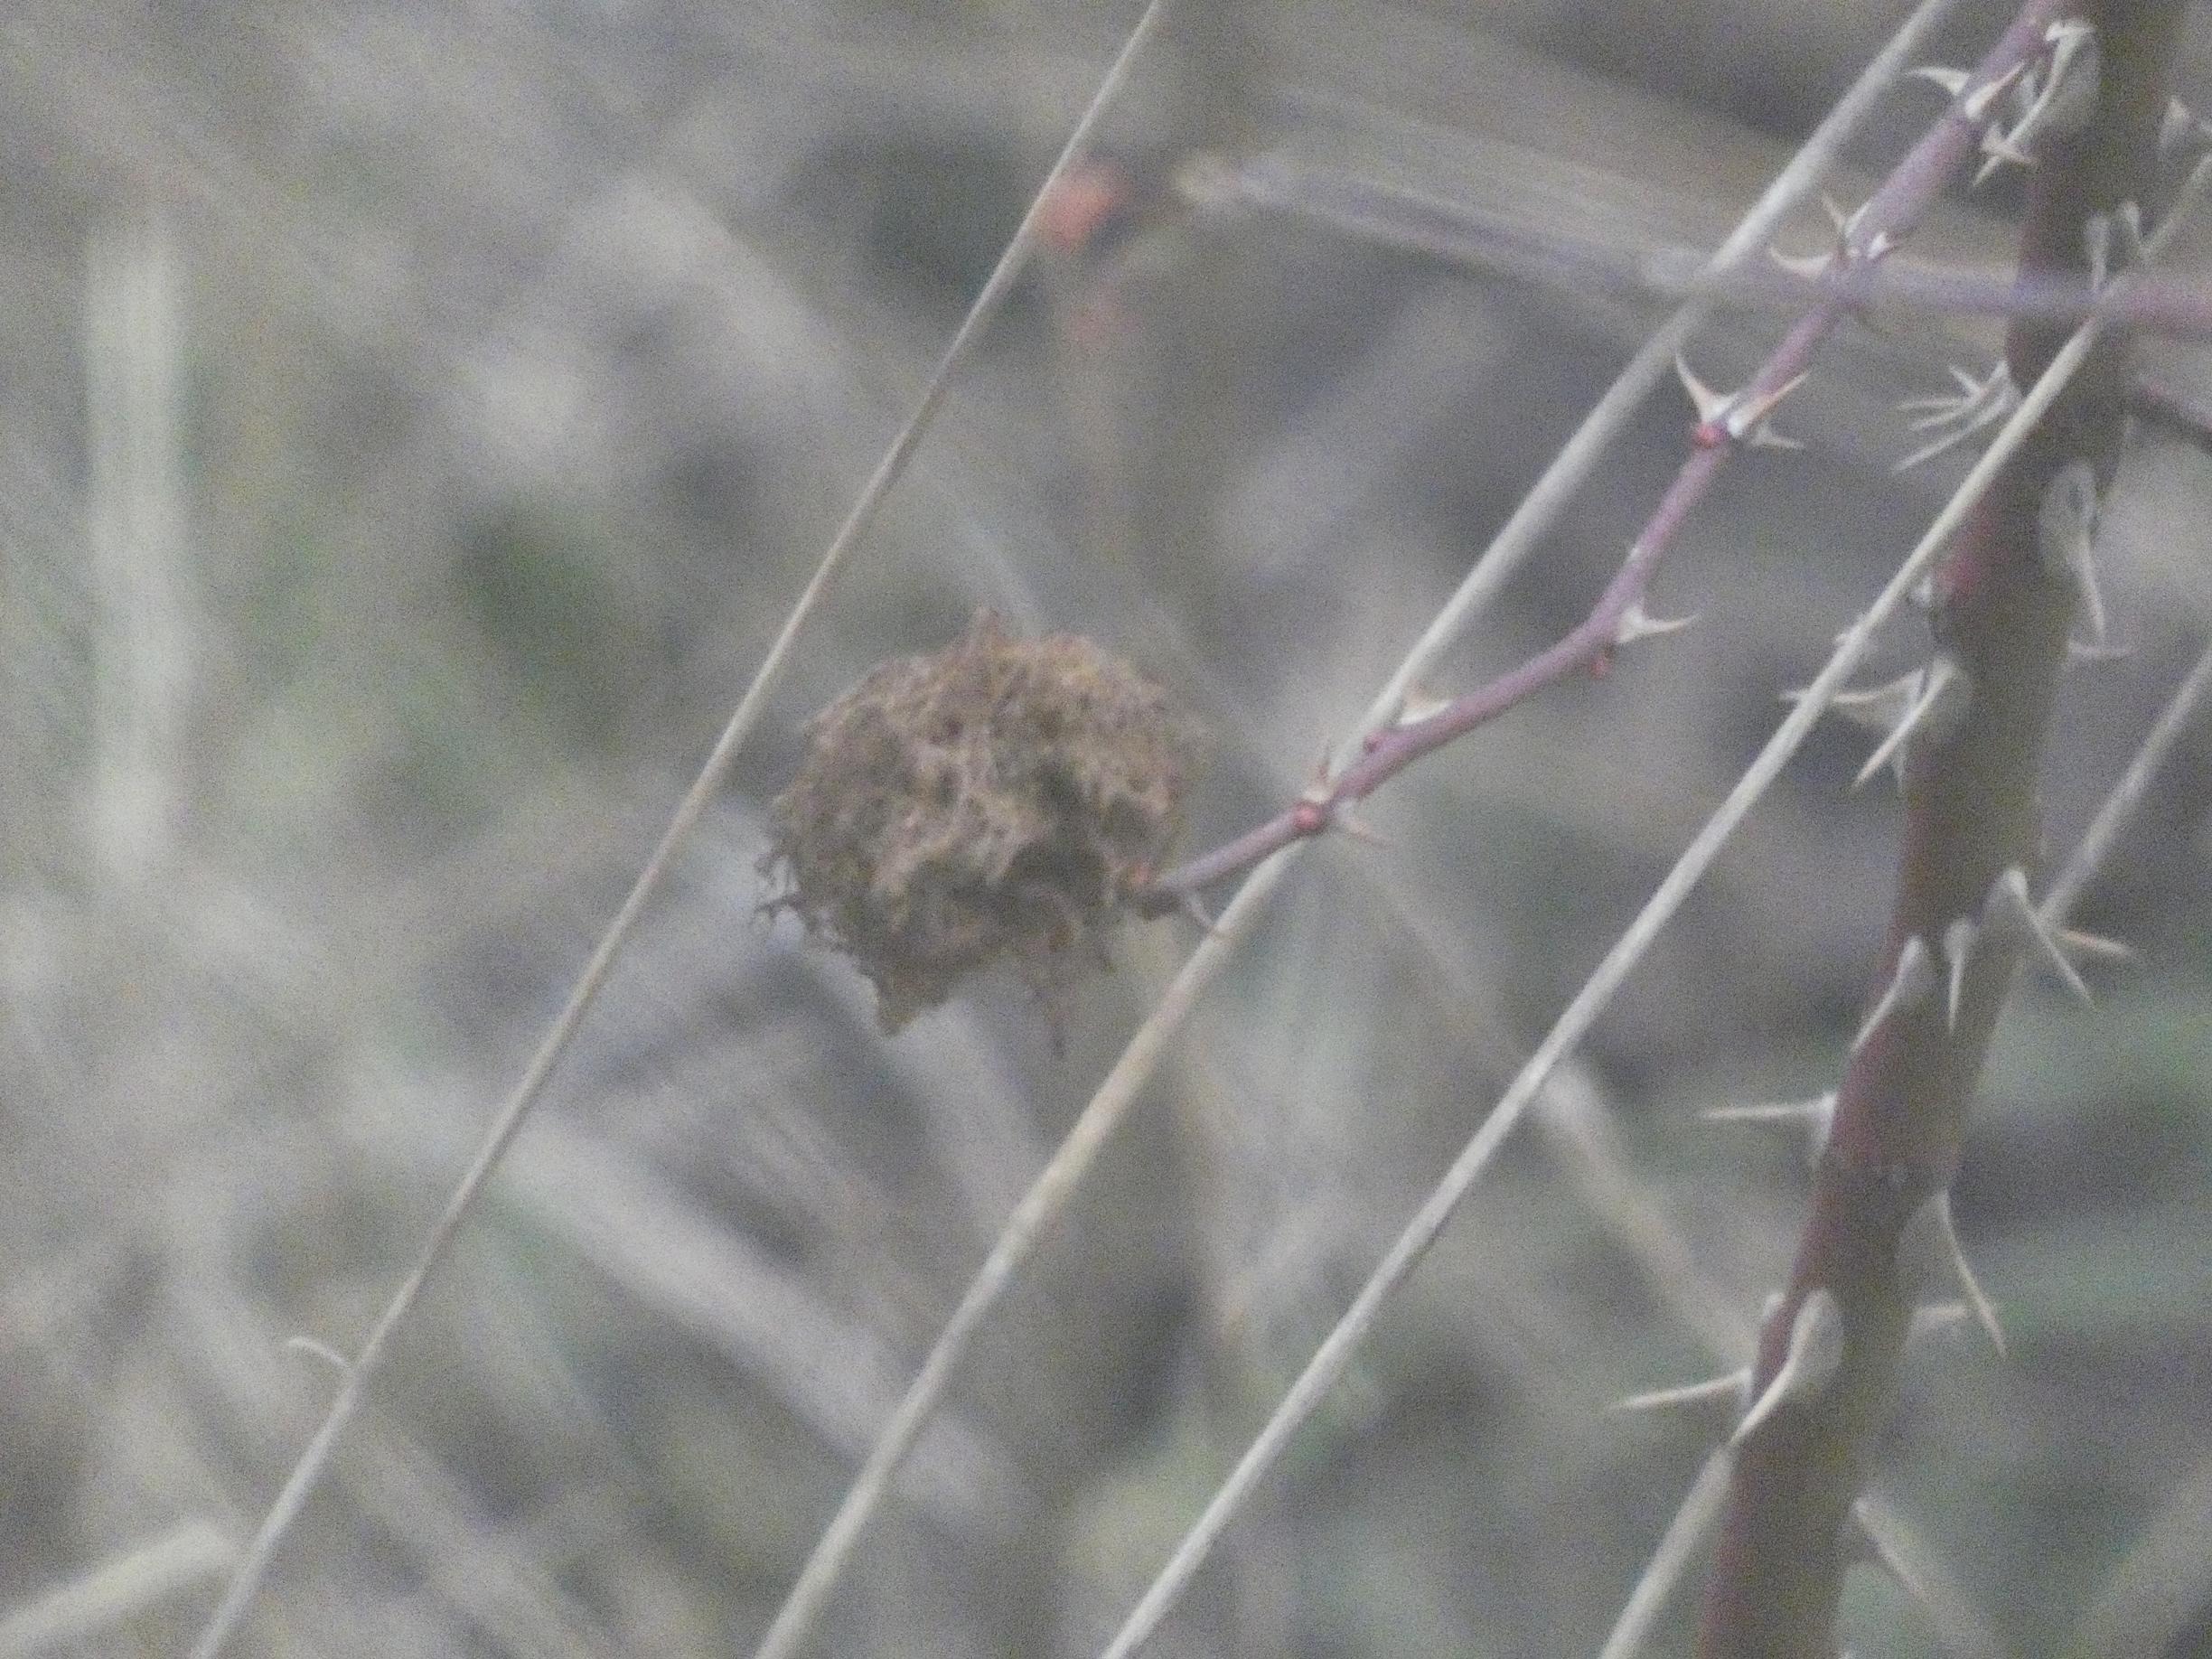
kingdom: Animalia
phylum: Arthropoda
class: Insecta
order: Hymenoptera
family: Cynipidae
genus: Diplolepis
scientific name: Diplolepis rosae
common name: Bedeguargalhveps
